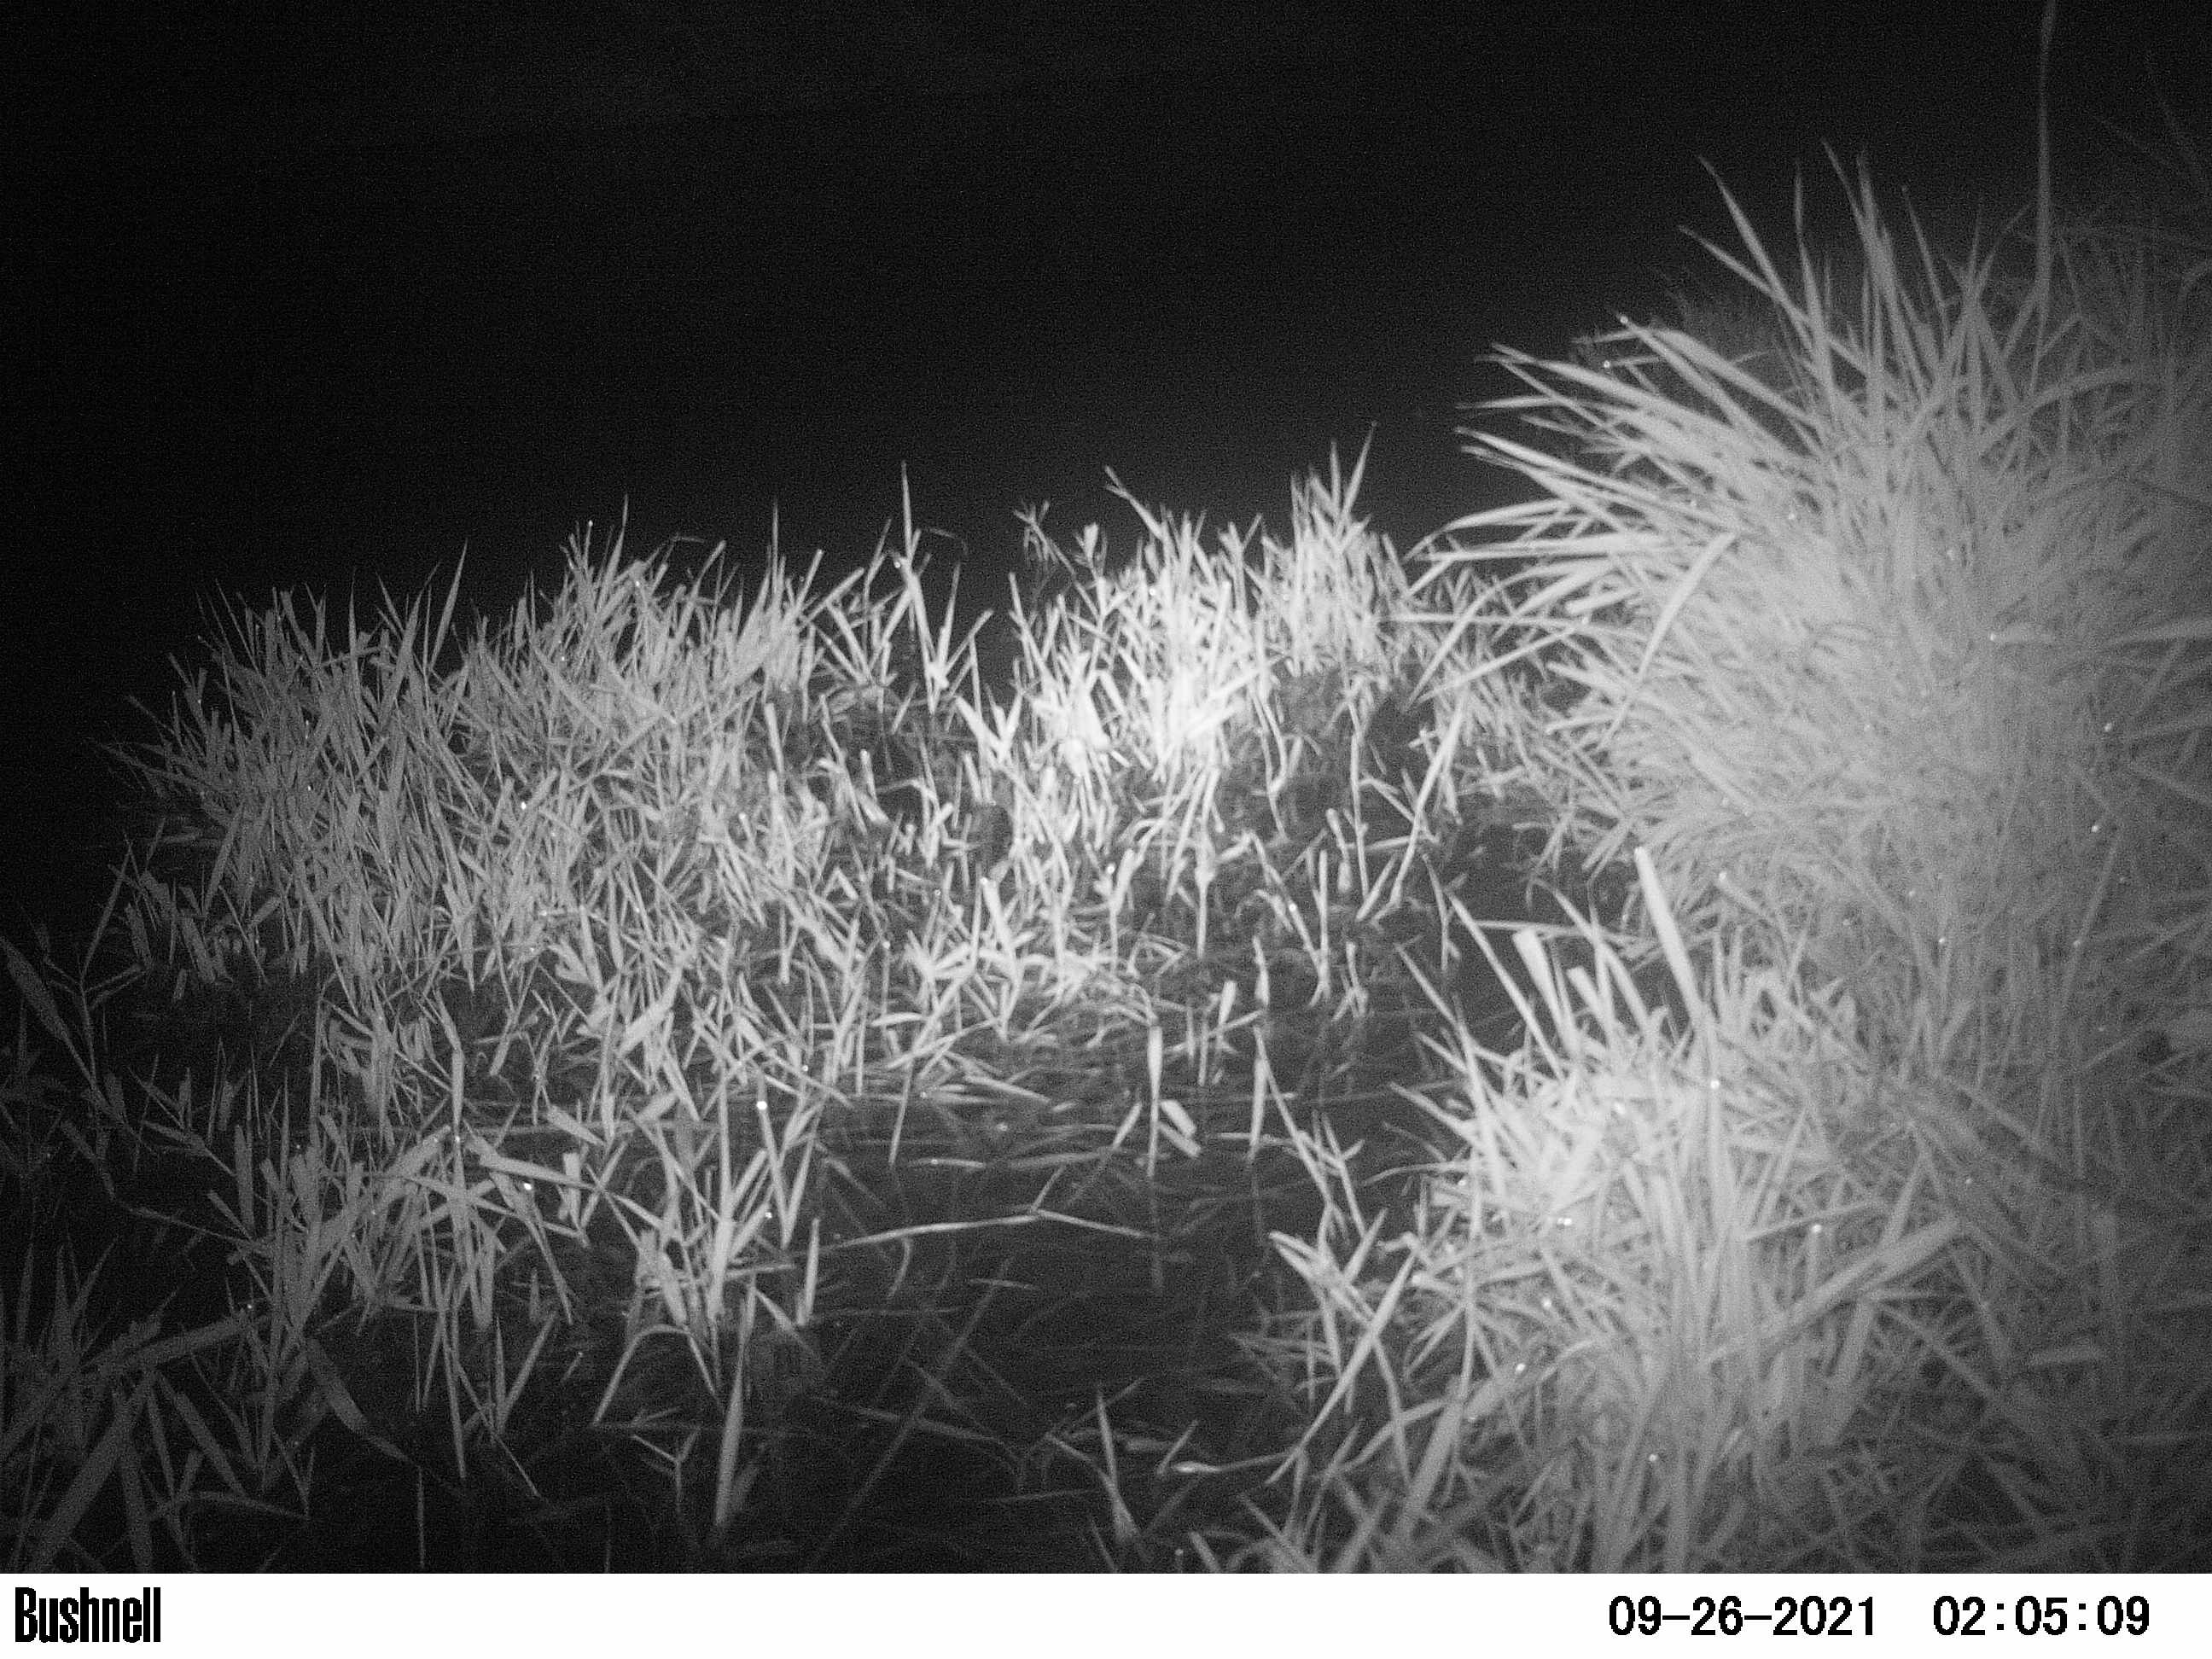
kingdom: Animalia
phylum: Chordata
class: Mammalia
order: Rodentia
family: Cricetidae
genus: Ondatra
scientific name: Ondatra zibethicus
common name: Muskrat
